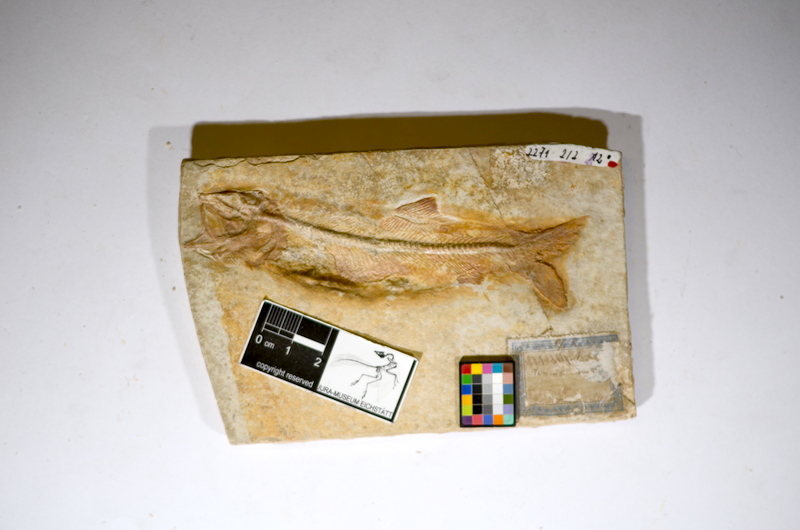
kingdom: Animalia
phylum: Chordata
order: Elopiformes
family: Anaethalionidae
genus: Anaethalion
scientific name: Anaethalion angustus
